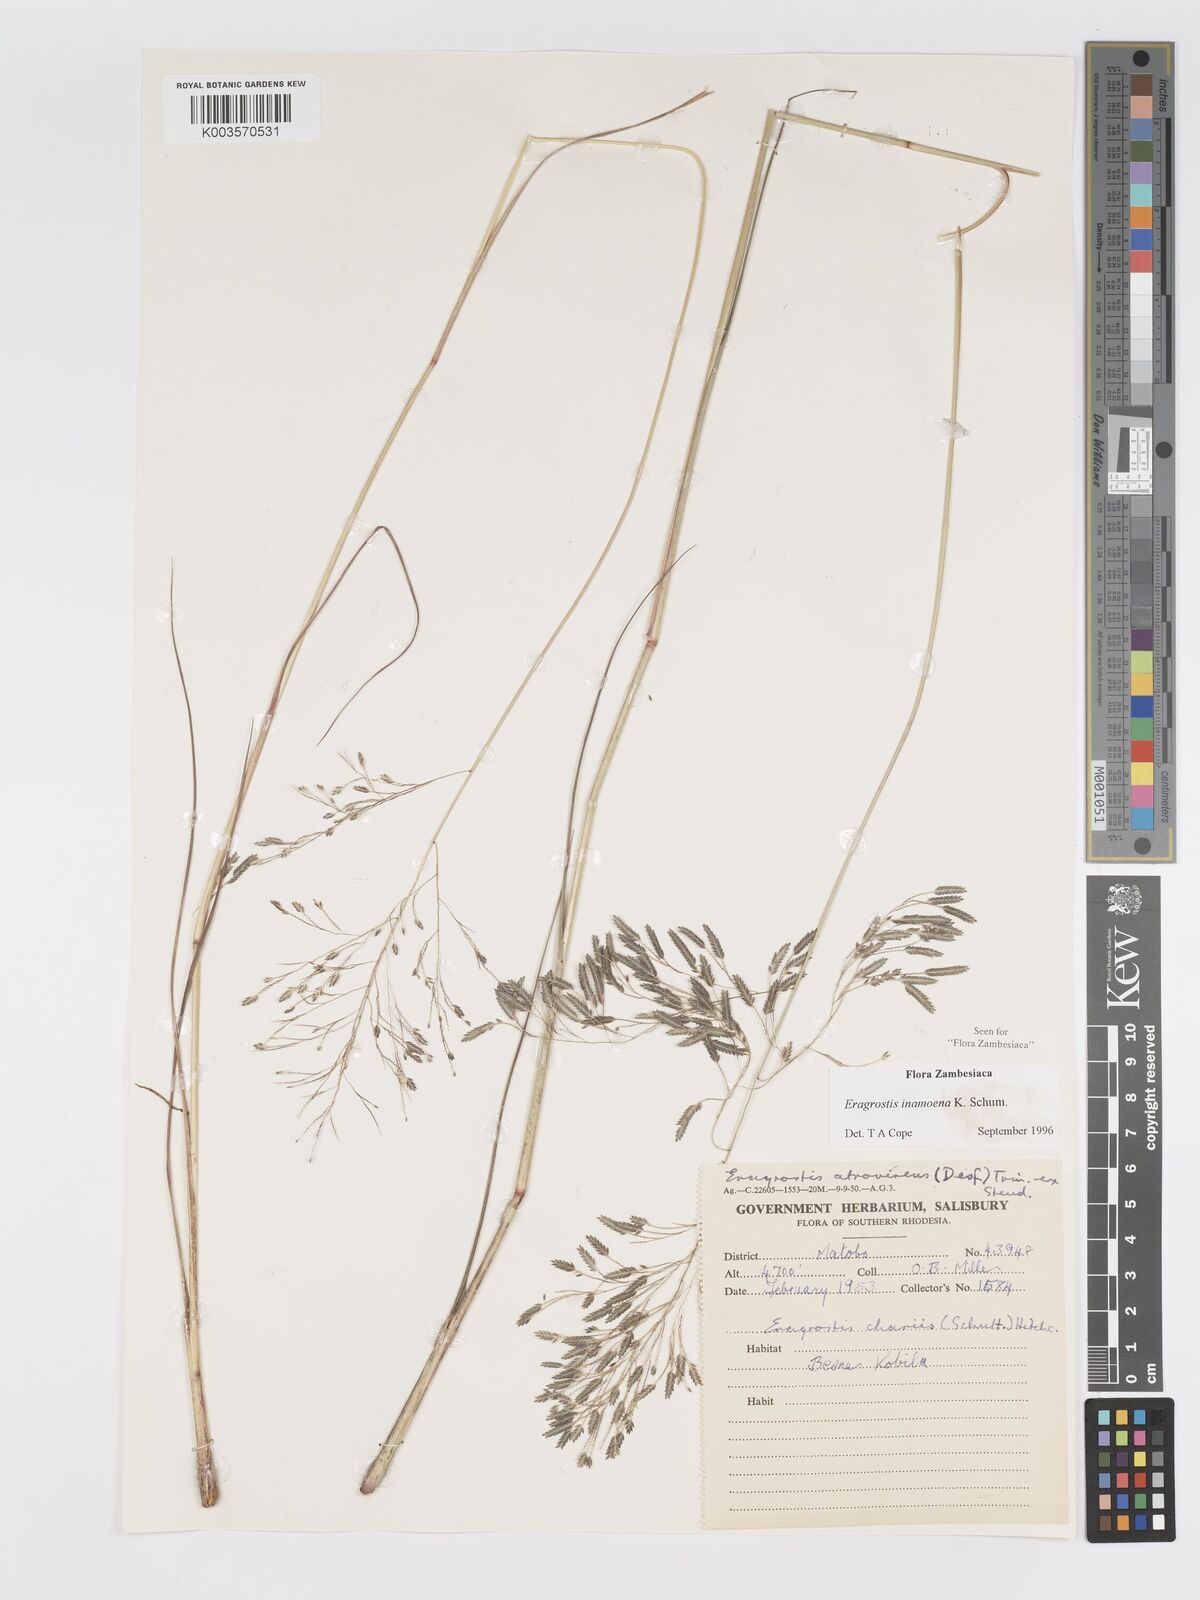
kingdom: Plantae
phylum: Tracheophyta
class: Liliopsida
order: Poales
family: Poaceae
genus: Eragrostis
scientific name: Eragrostis inamoena
